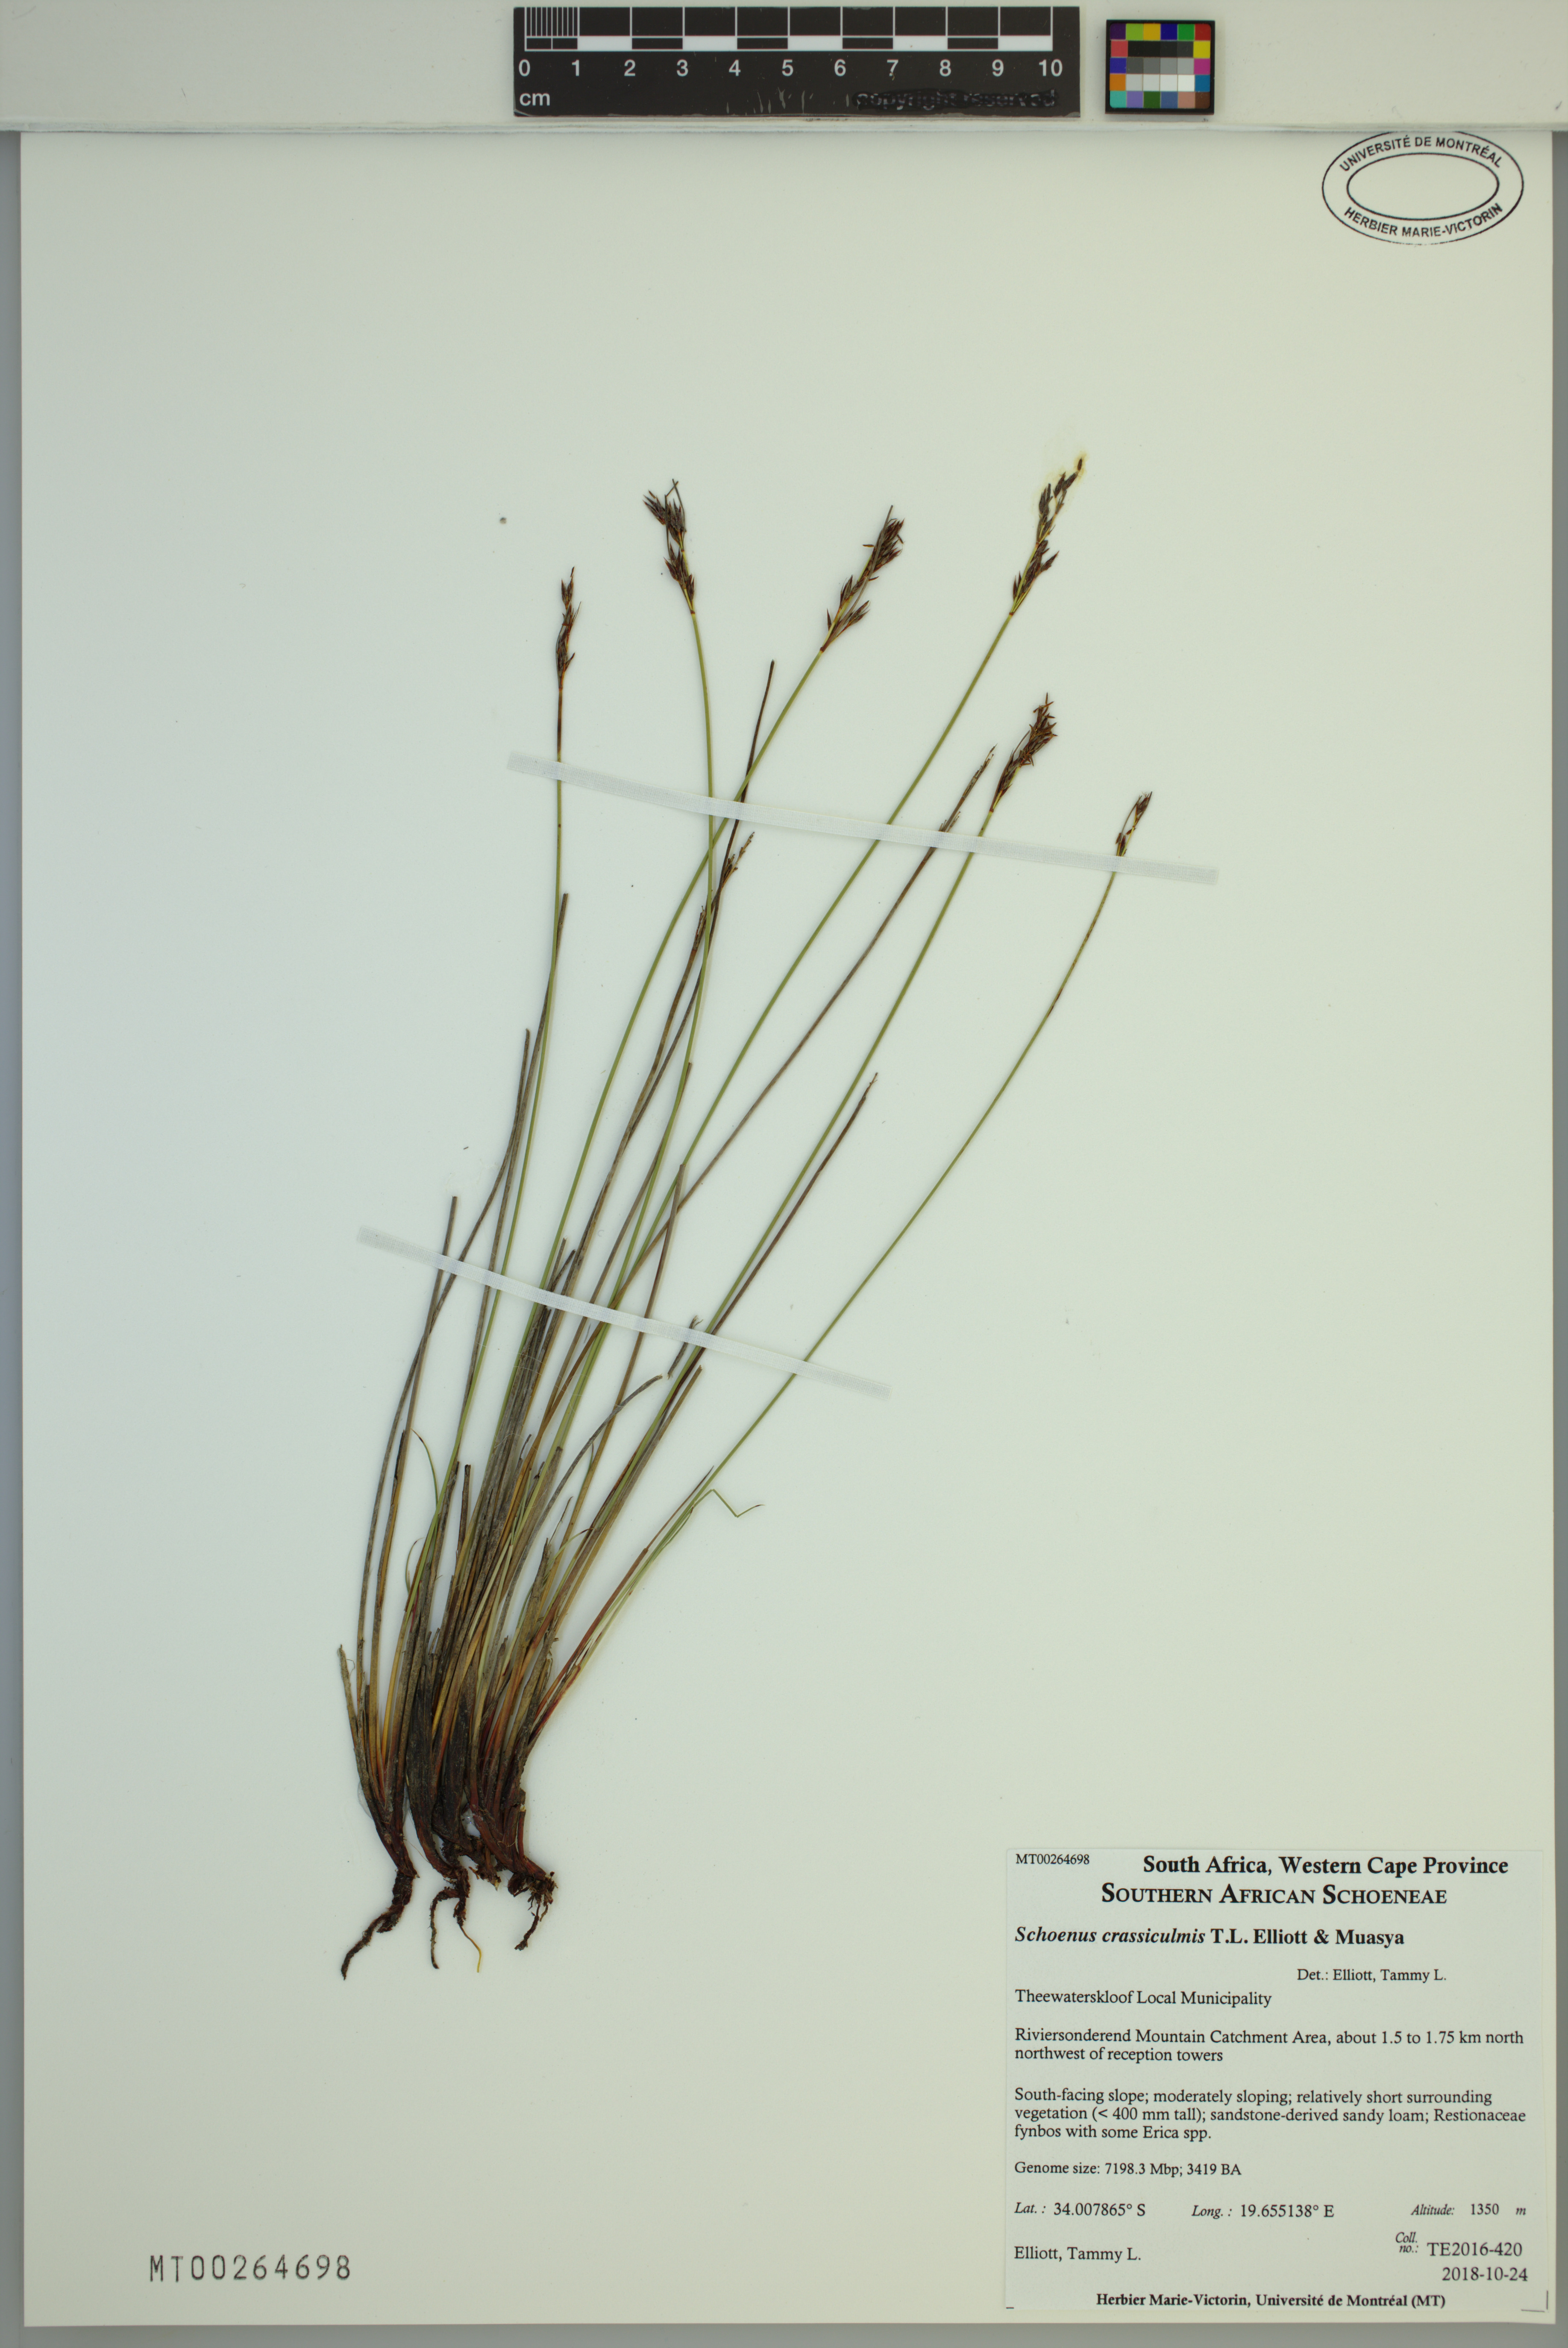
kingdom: Plantae
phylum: Tracheophyta
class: Liliopsida
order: Poales
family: Cyperaceae
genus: Schoenus
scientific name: Schoenus crassiculmis
